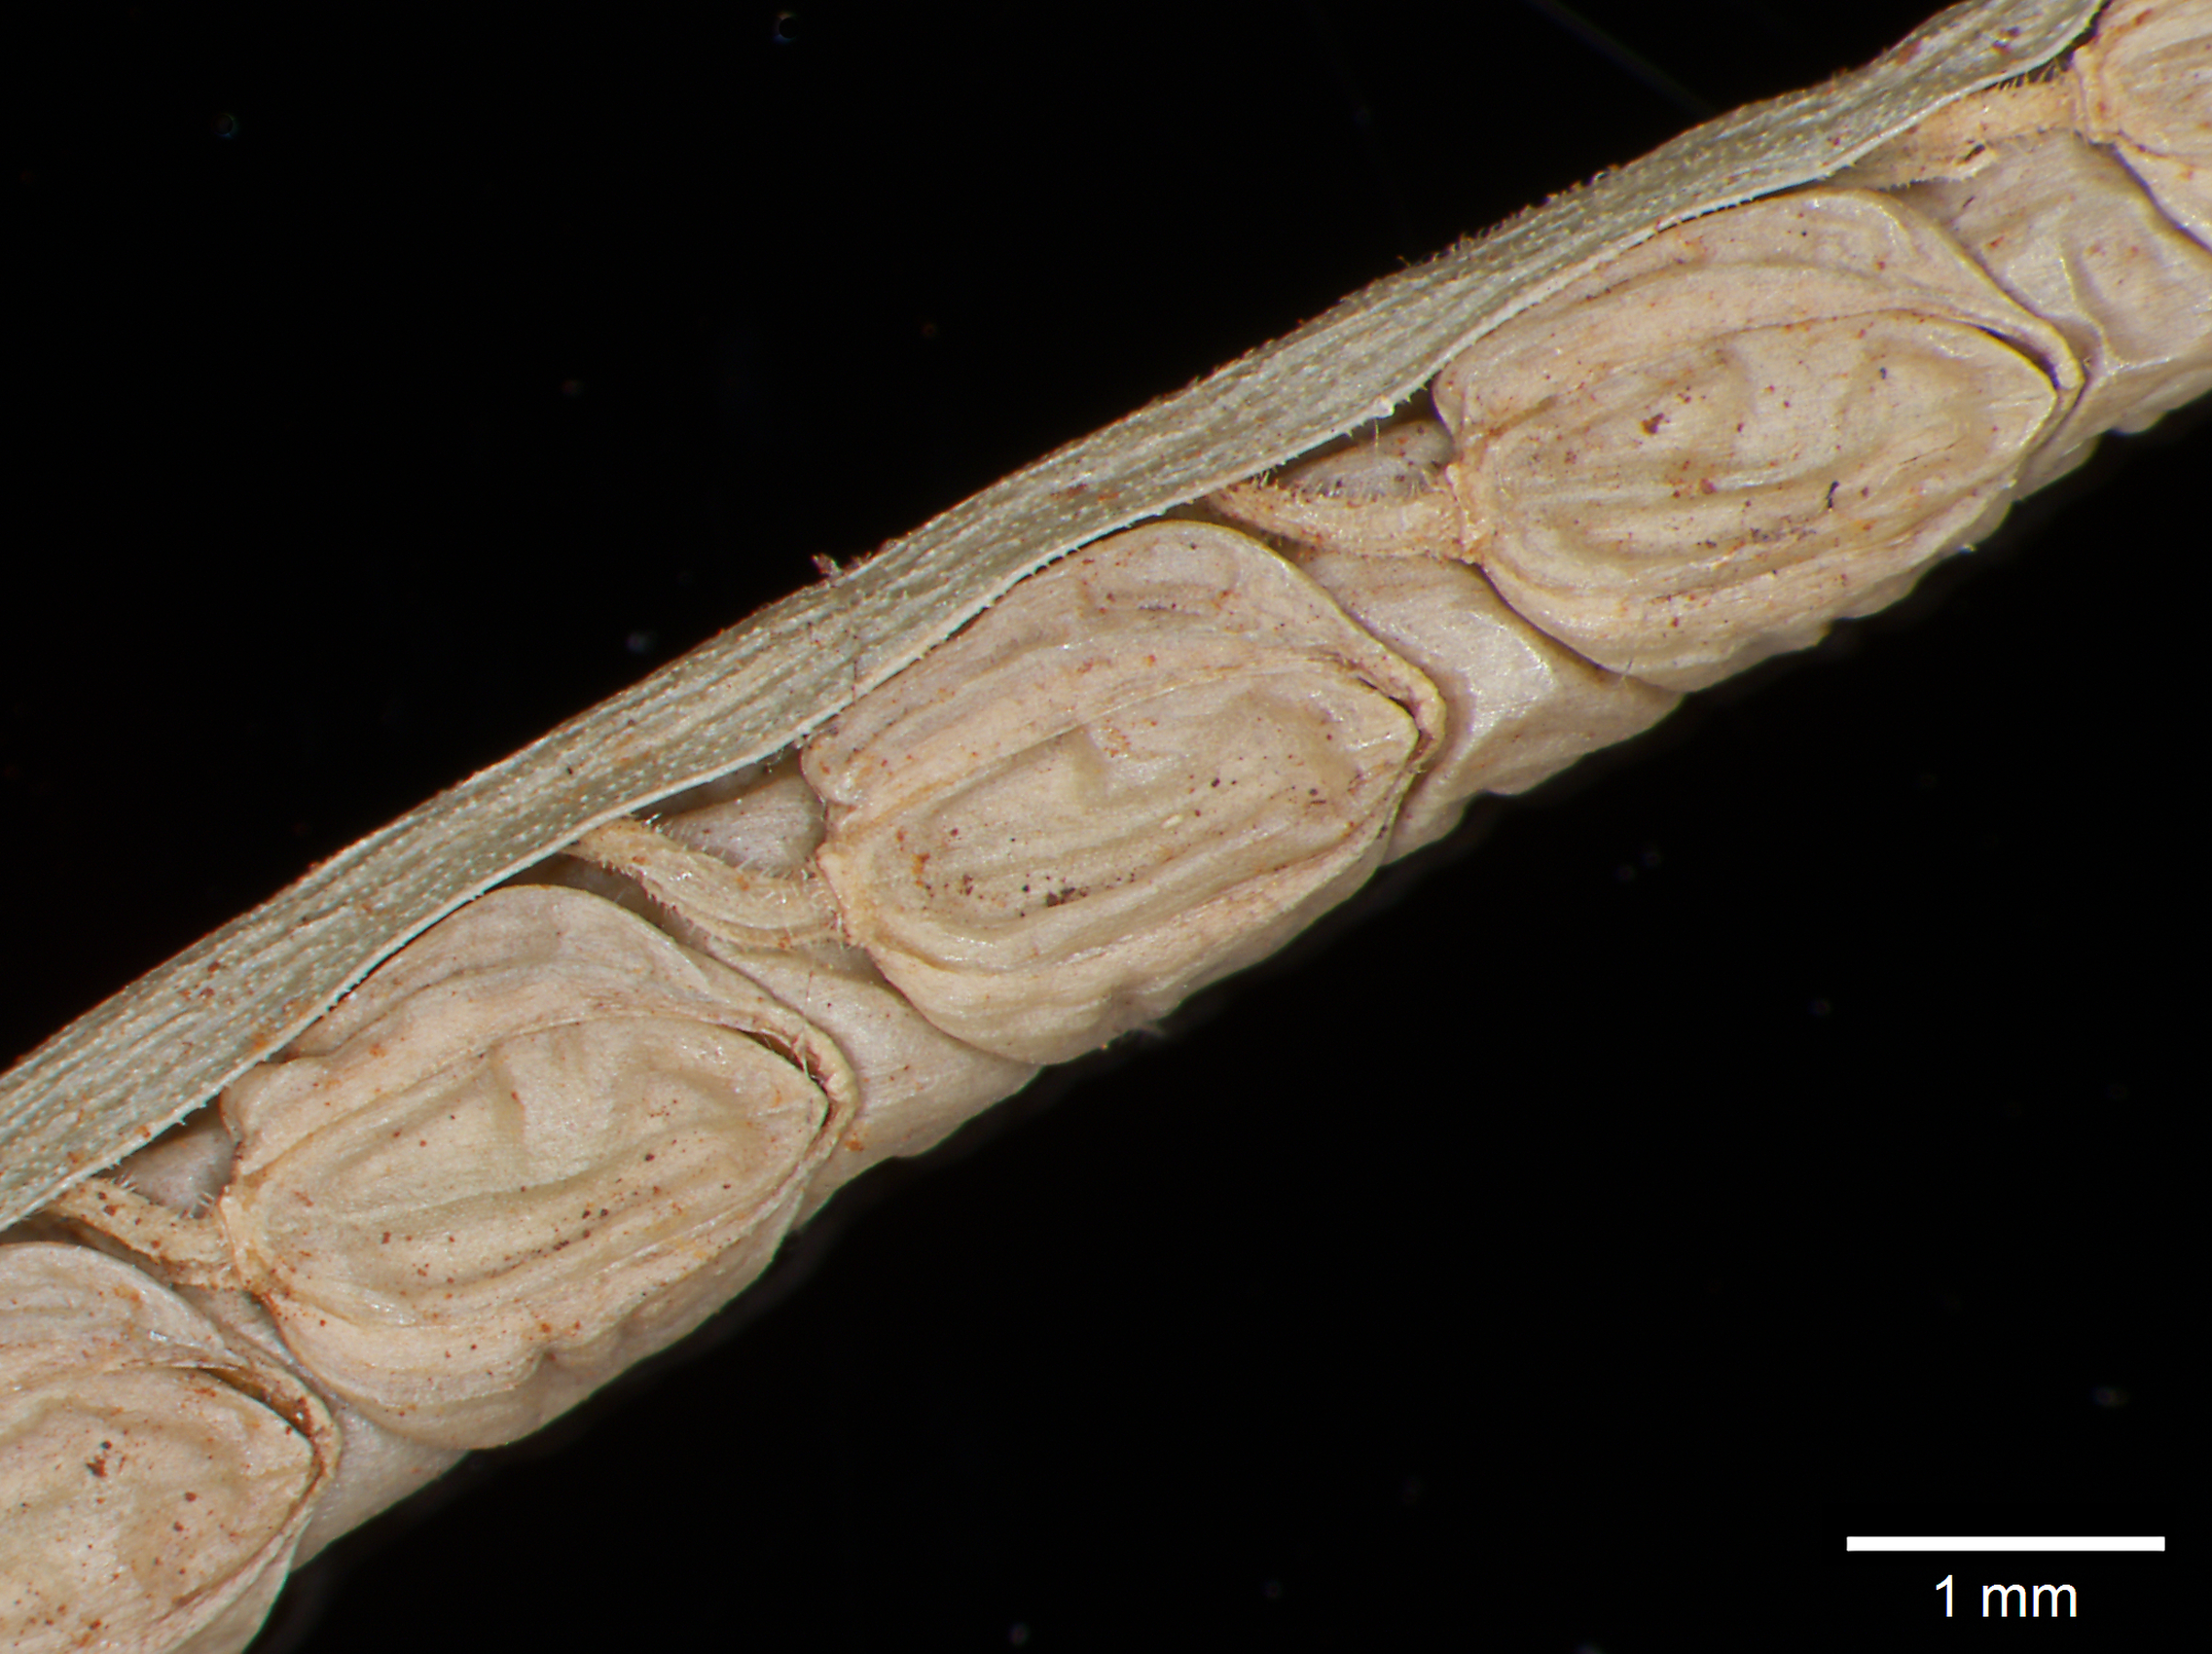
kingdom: Plantae
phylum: Tracheophyta
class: Liliopsida
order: Poales
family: Poaceae
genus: Paspalum
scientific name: Paspalum distortum
